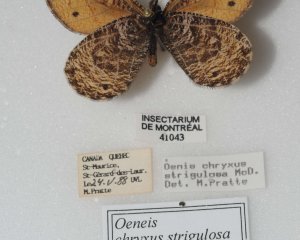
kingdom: Animalia
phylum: Arthropoda
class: Insecta
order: Lepidoptera
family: Nymphalidae
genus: Oeneis
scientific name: Oeneis chryxus
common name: Chryxus Arctic
